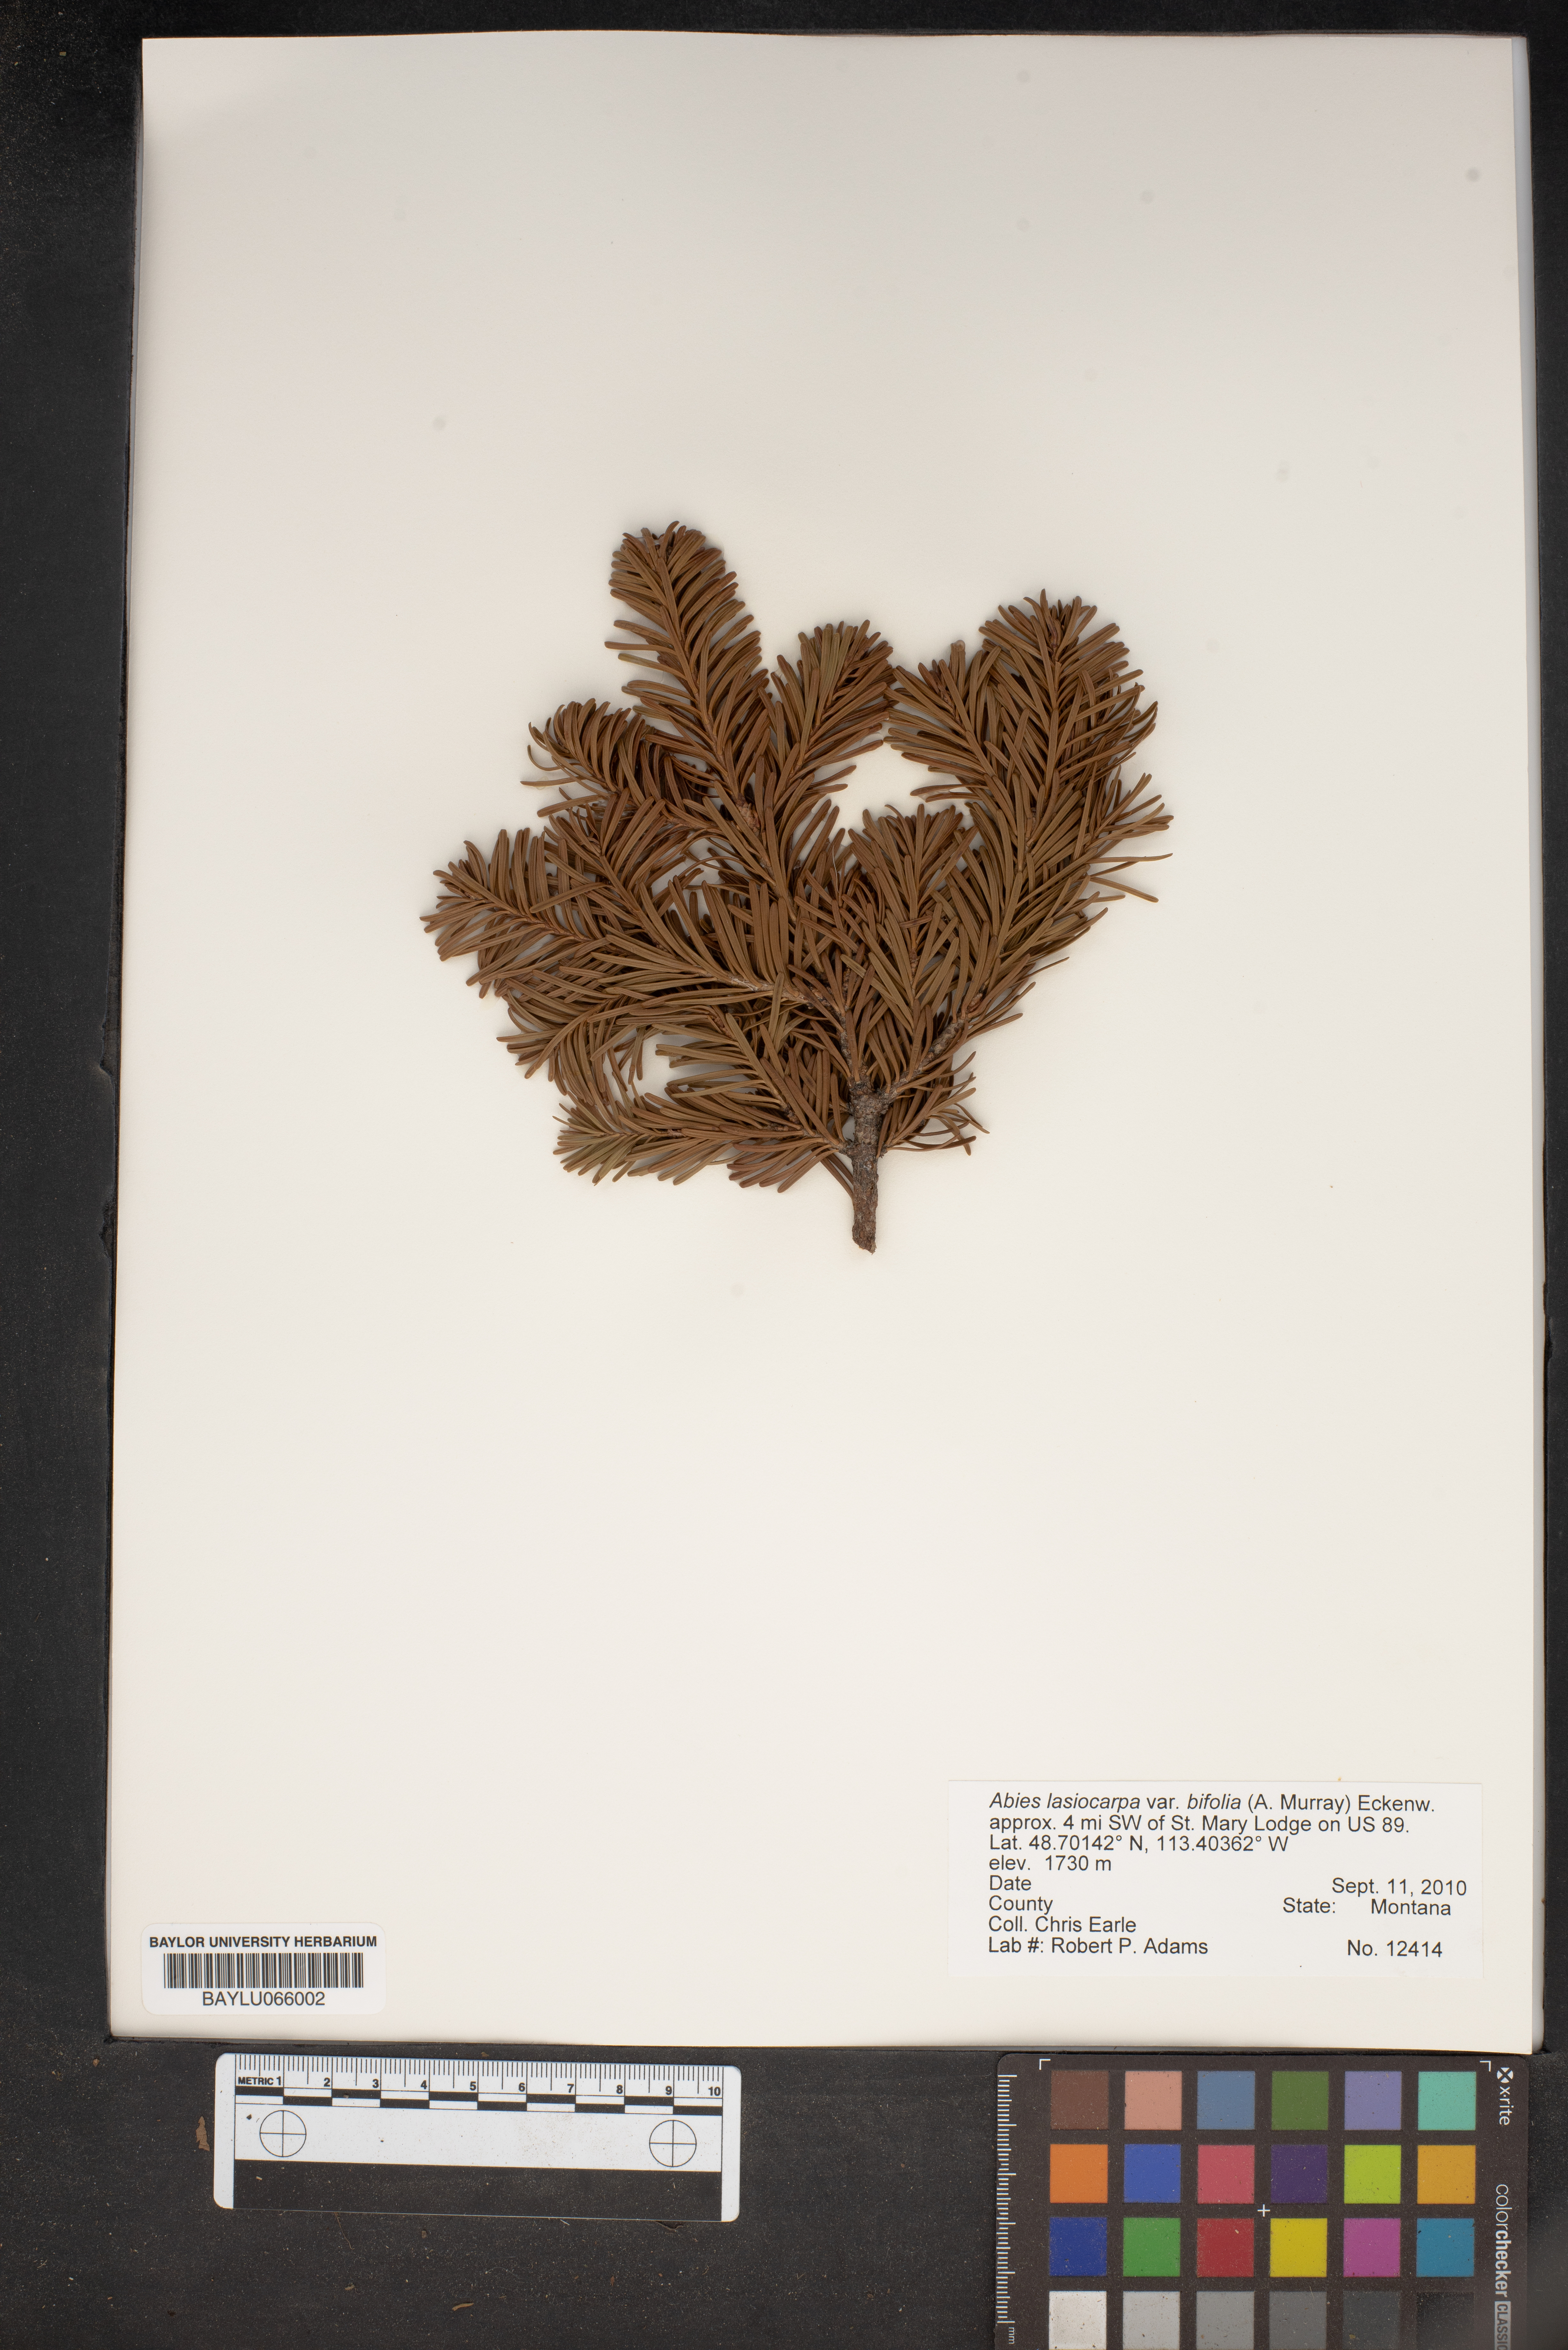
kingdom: Plantae
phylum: Tracheophyta
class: Pinopsida
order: Pinales
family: Pinaceae
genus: Abies
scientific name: Abies lasiocarpa
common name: Subalpine fir
